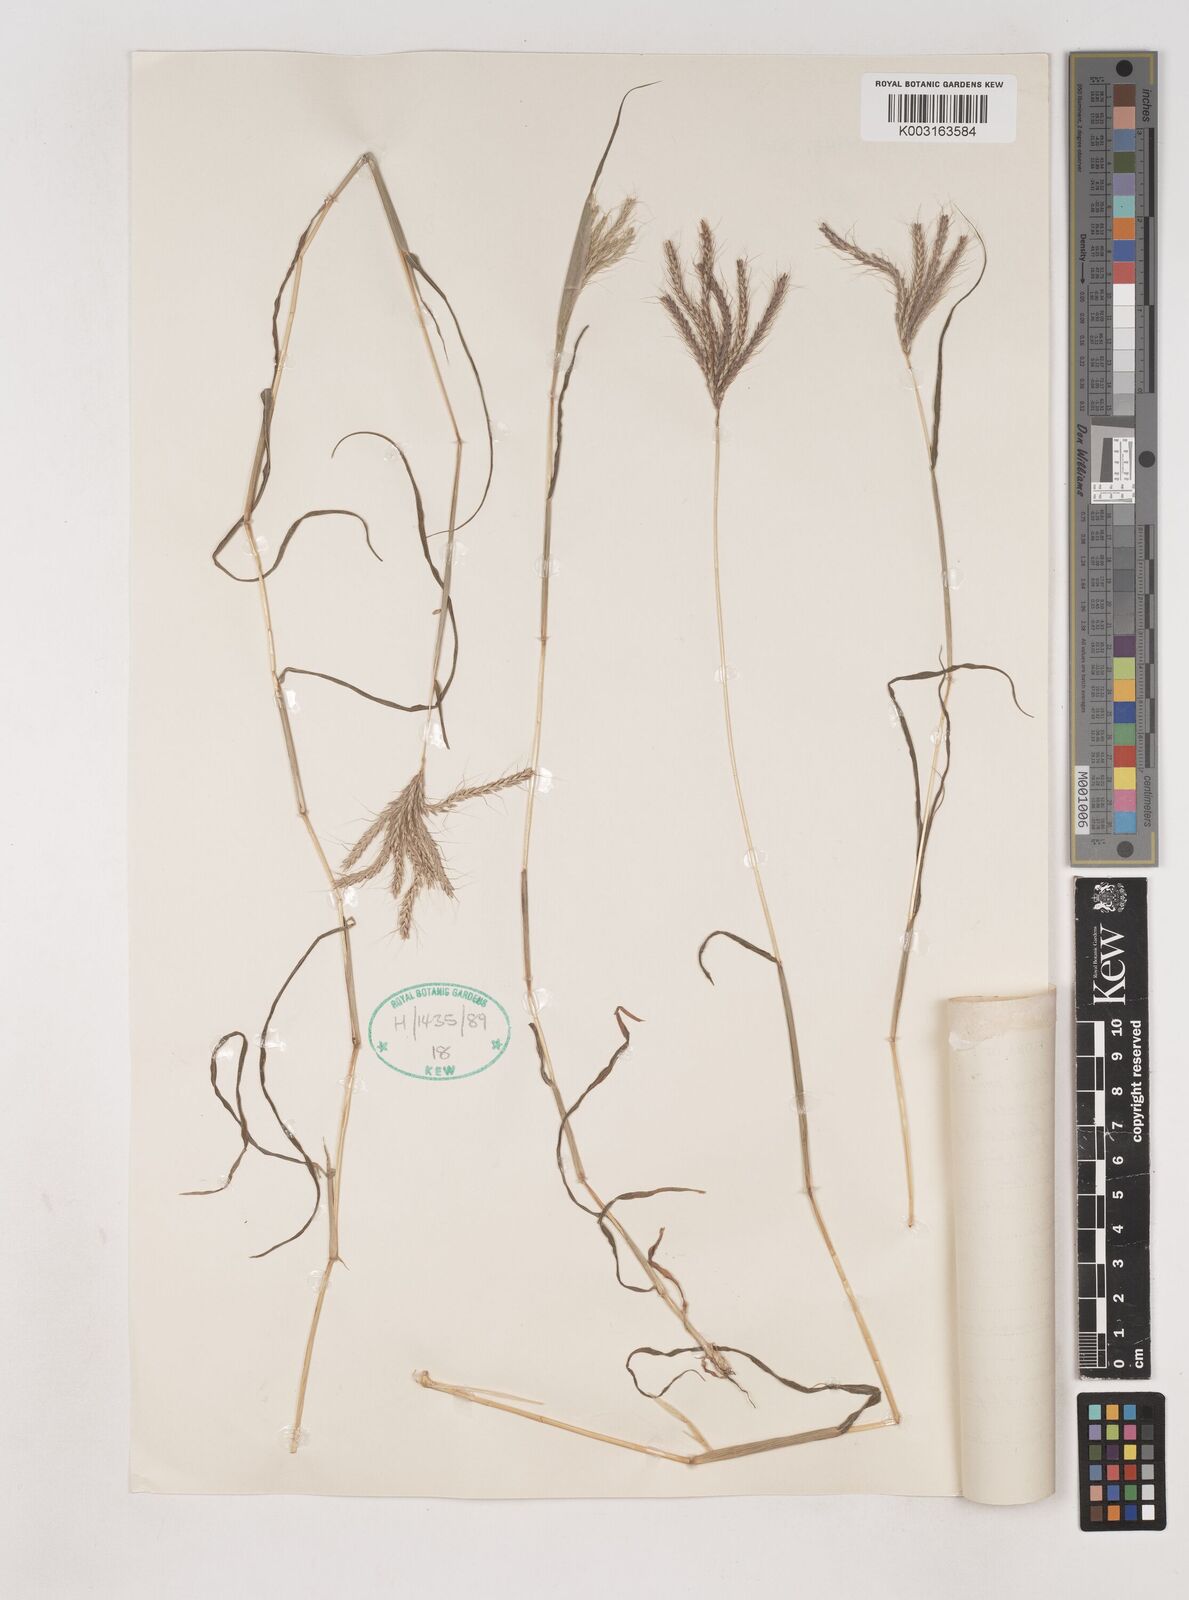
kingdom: Plantae
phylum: Tracheophyta
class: Liliopsida
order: Poales
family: Poaceae
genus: Dichanthium
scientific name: Dichanthium annulatum
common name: Kleberg's bluestem
